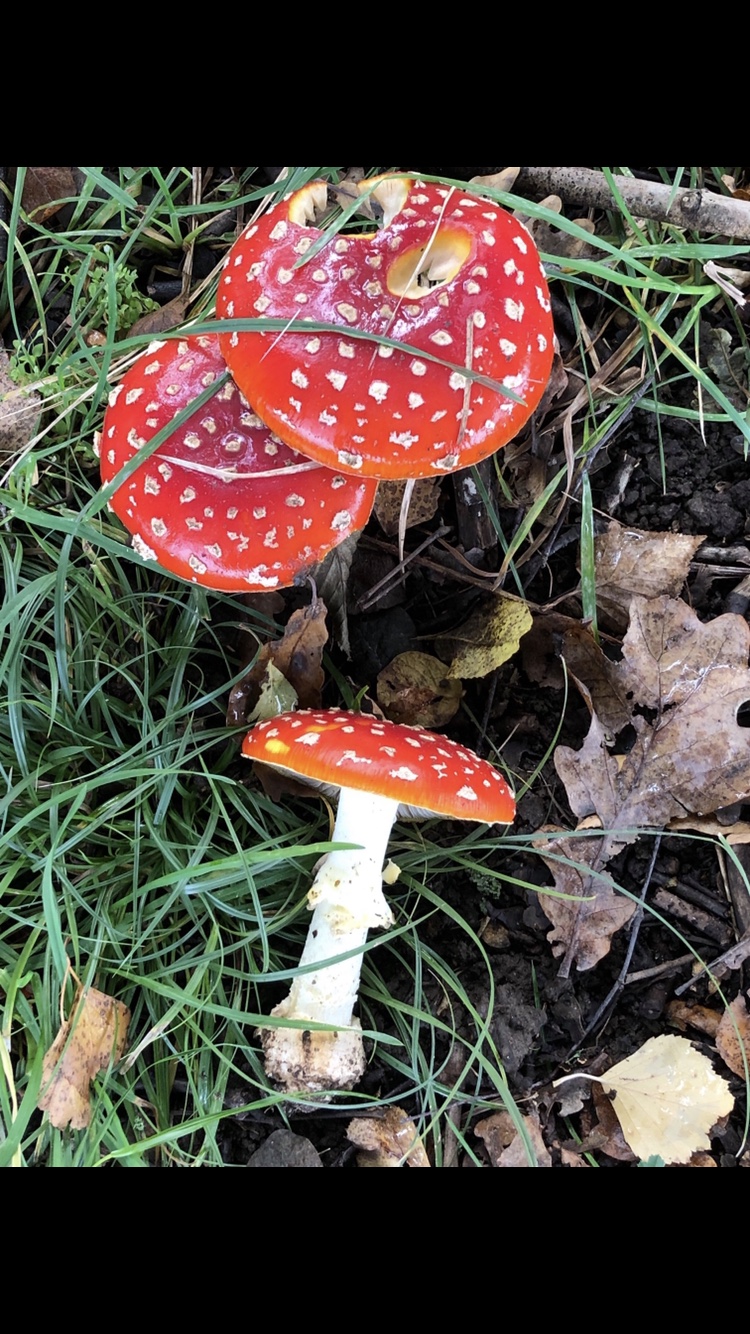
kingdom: Fungi
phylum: Basidiomycota
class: Agaricomycetes
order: Agaricales
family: Amanitaceae
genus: Amanita
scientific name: Amanita muscaria
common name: rød fluesvamp
